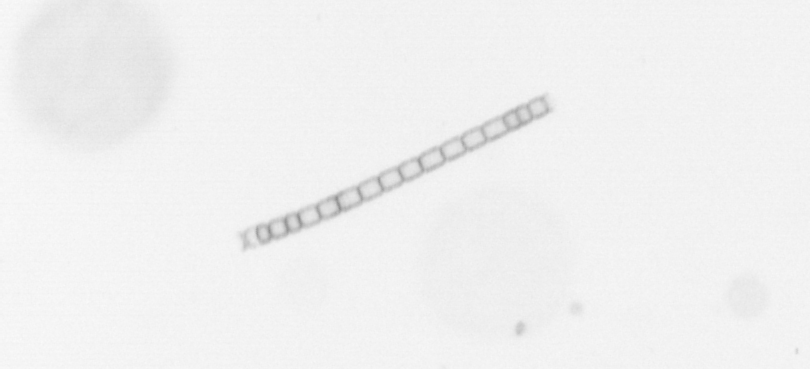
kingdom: Chromista
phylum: Ochrophyta
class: Bacillariophyceae
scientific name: Bacillariophyceae
